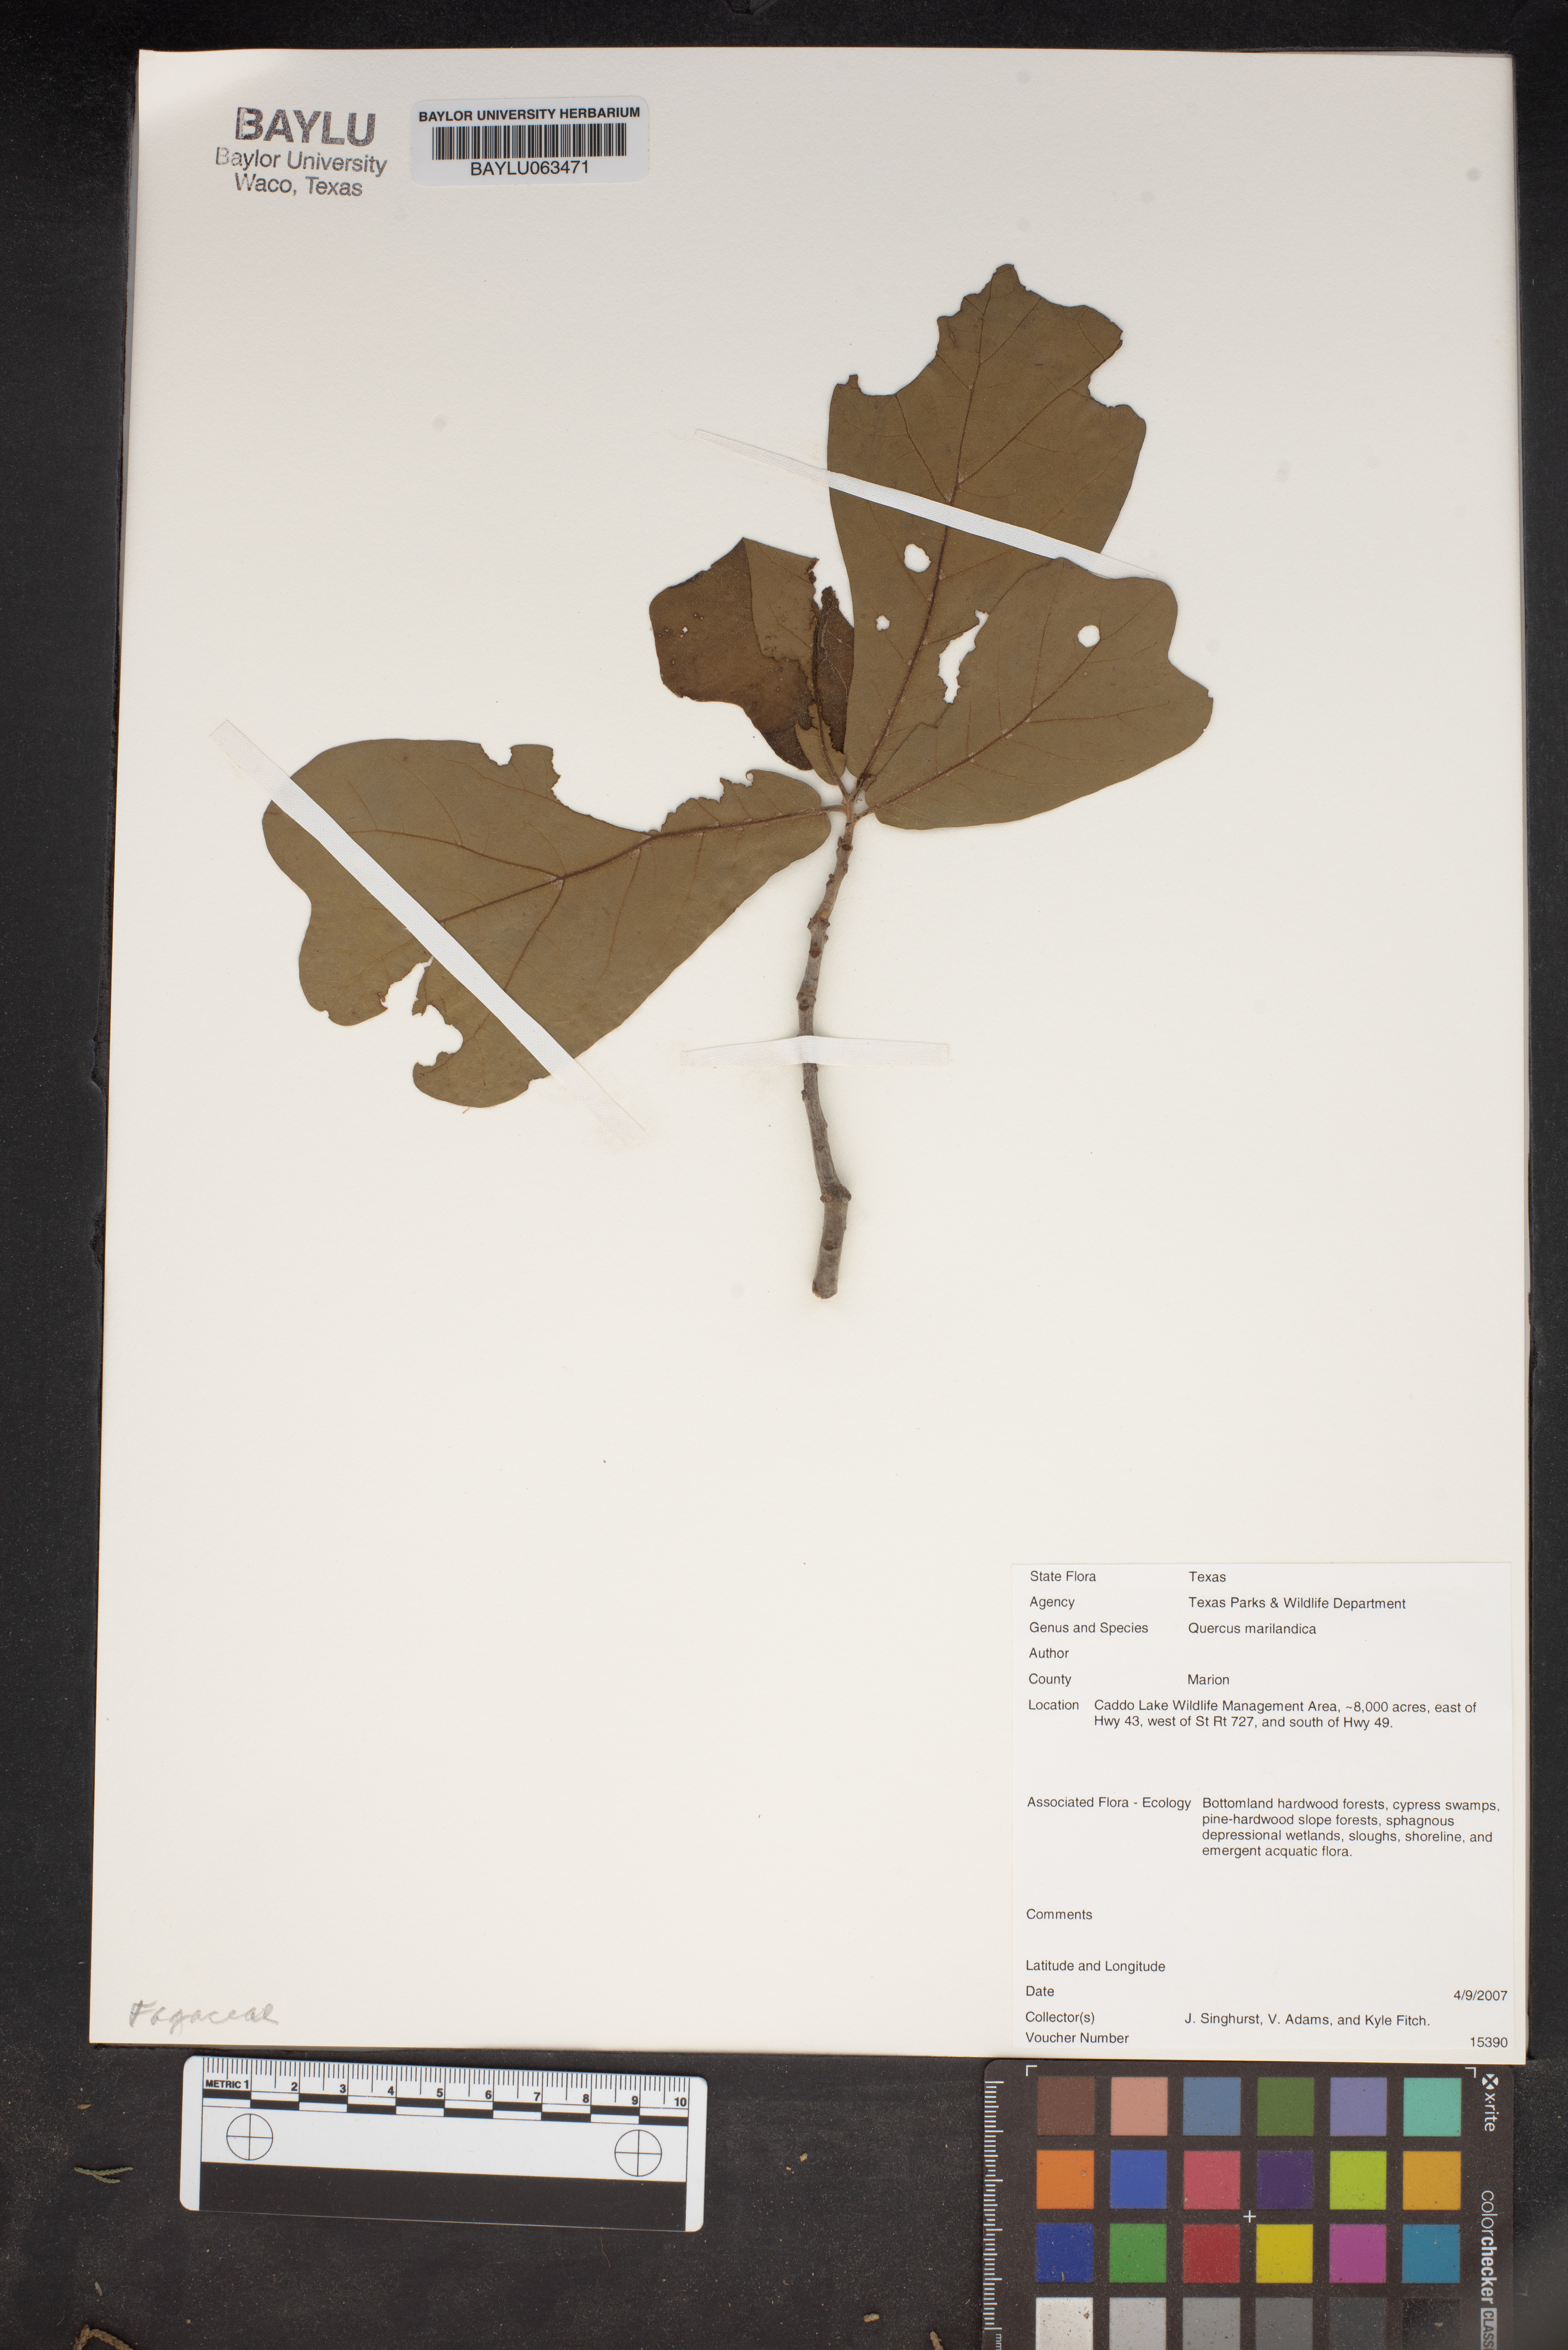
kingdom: Plantae
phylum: Tracheophyta
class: Magnoliopsida
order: Fagales
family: Fagaceae
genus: Quercus
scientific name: Quercus marilandica
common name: Blackjack oak
